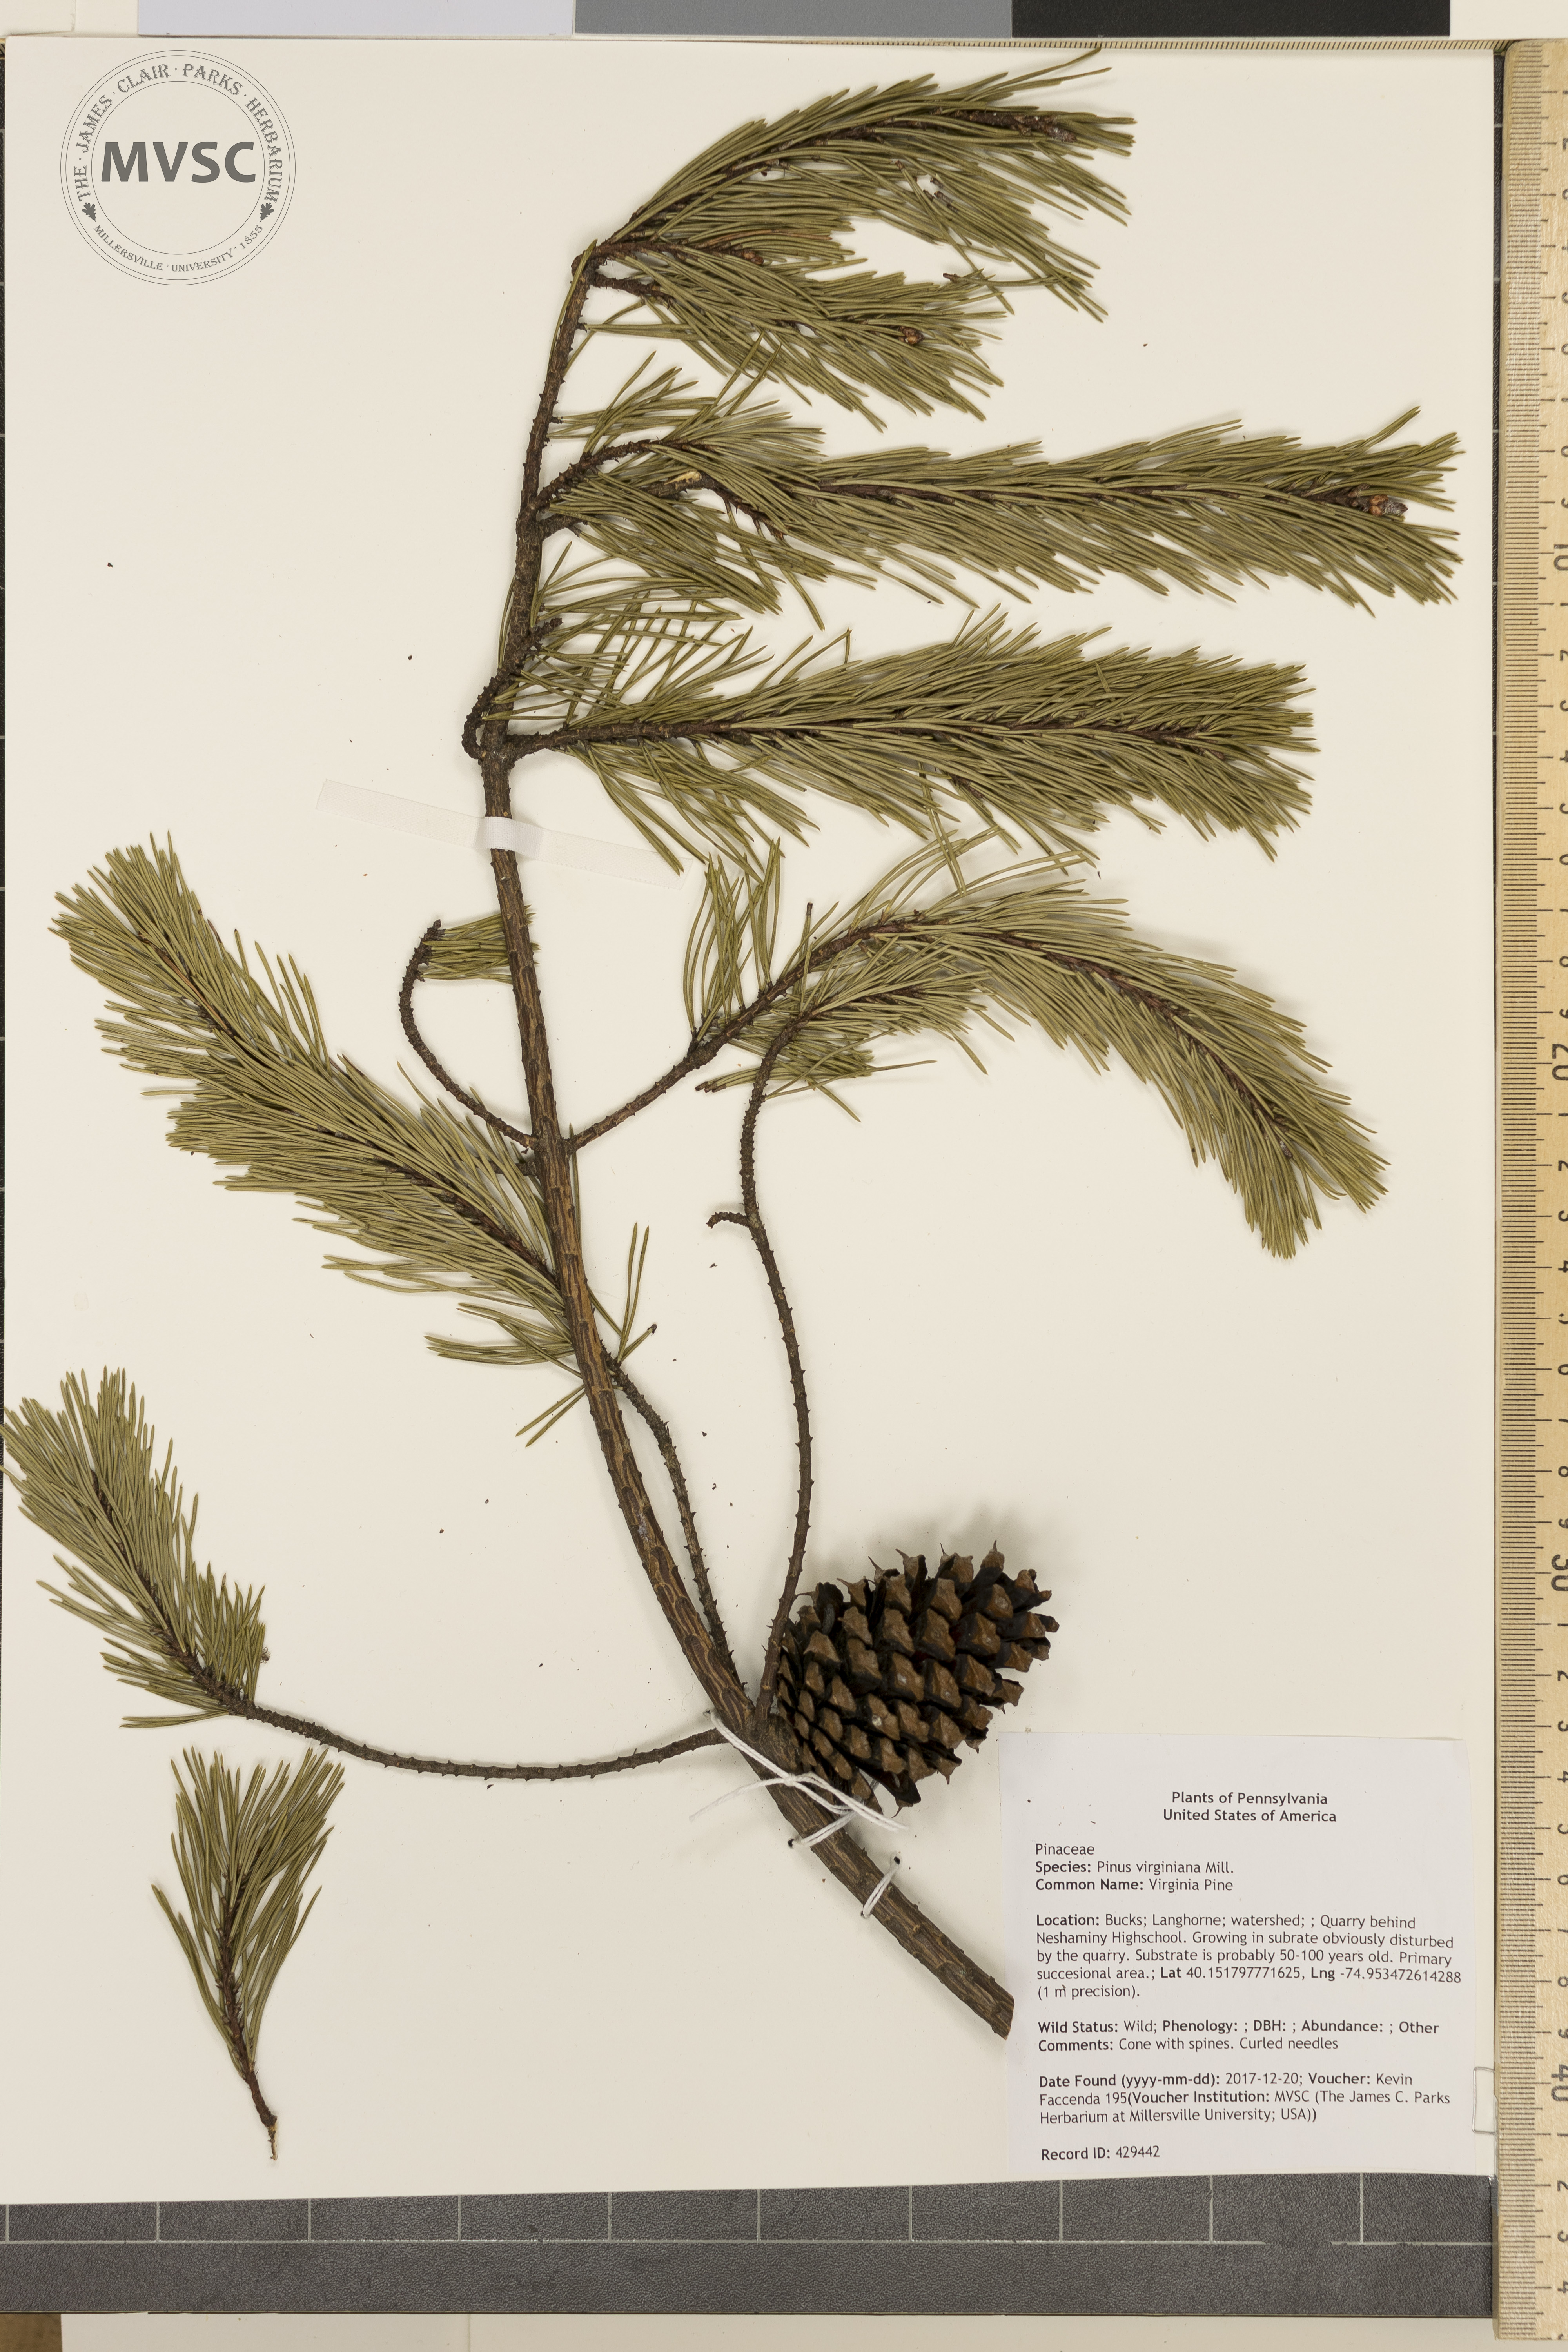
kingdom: Plantae
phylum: Tracheophyta
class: Pinopsida
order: Pinales
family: Pinaceae
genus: Pinus
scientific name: Pinus virginiana
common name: Virginia Pine
